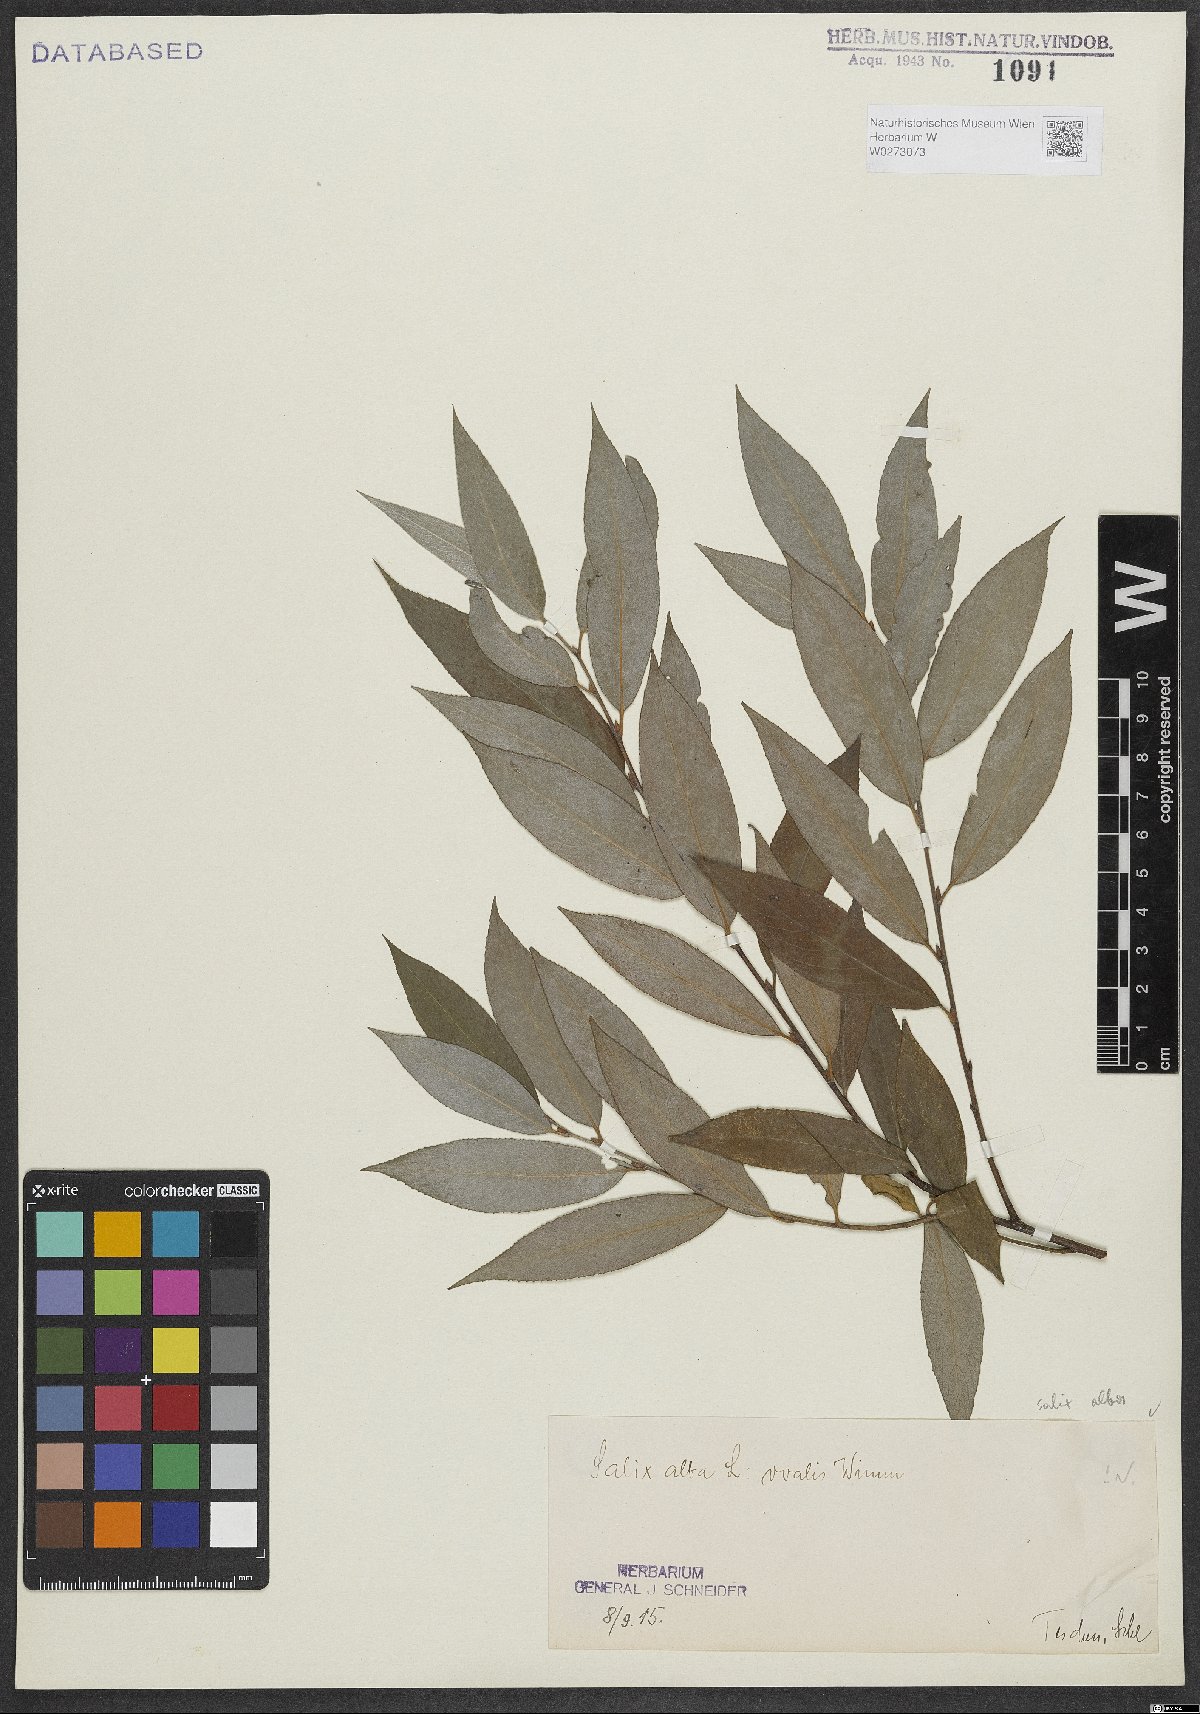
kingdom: Plantae
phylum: Tracheophyta
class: Magnoliopsida
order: Malpighiales
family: Salicaceae
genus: Salix
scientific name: Salix alba
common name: White willow
